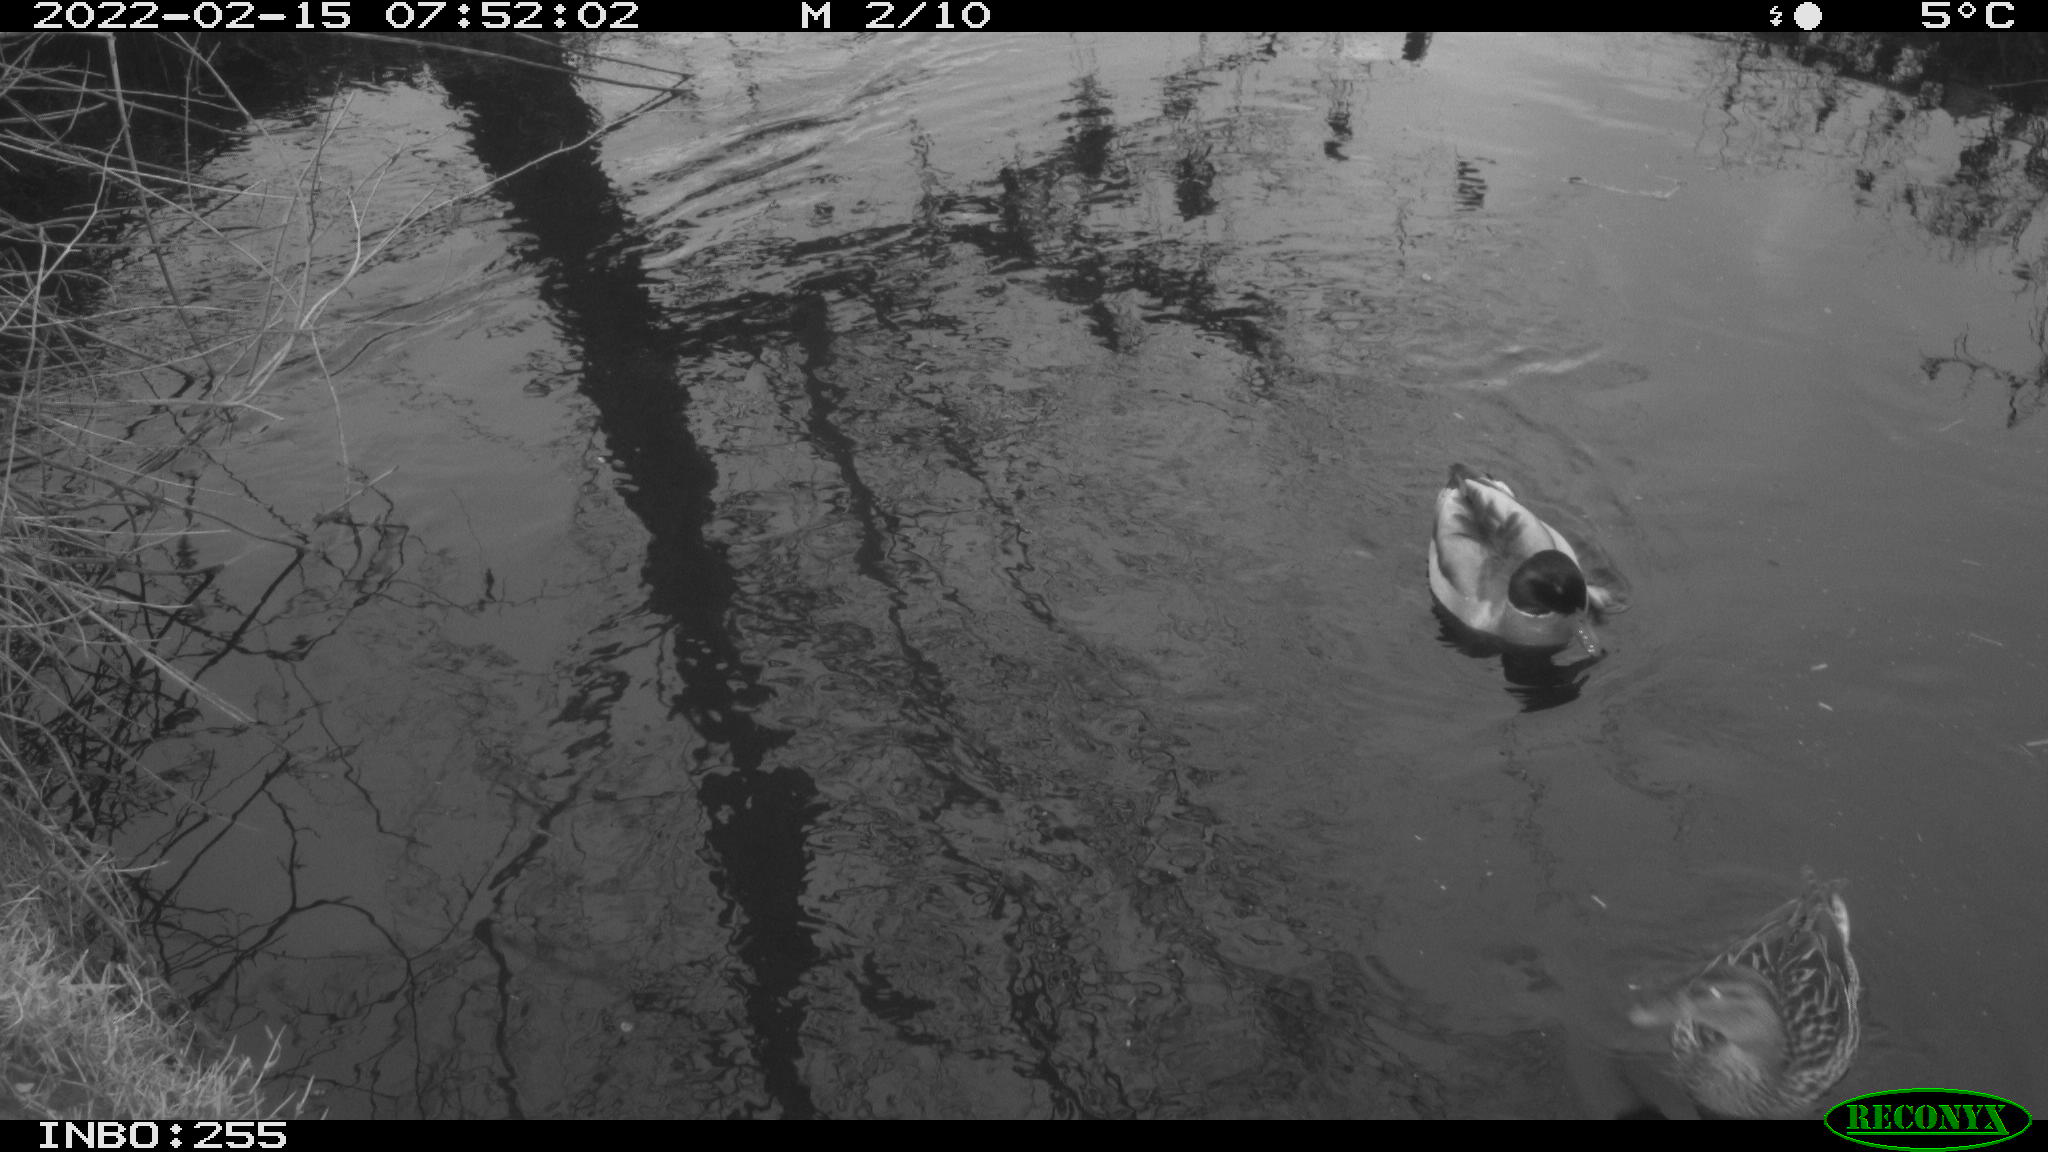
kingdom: Animalia
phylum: Chordata
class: Aves
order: Anseriformes
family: Anatidae
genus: Anas
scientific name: Anas platyrhynchos
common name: Mallard
